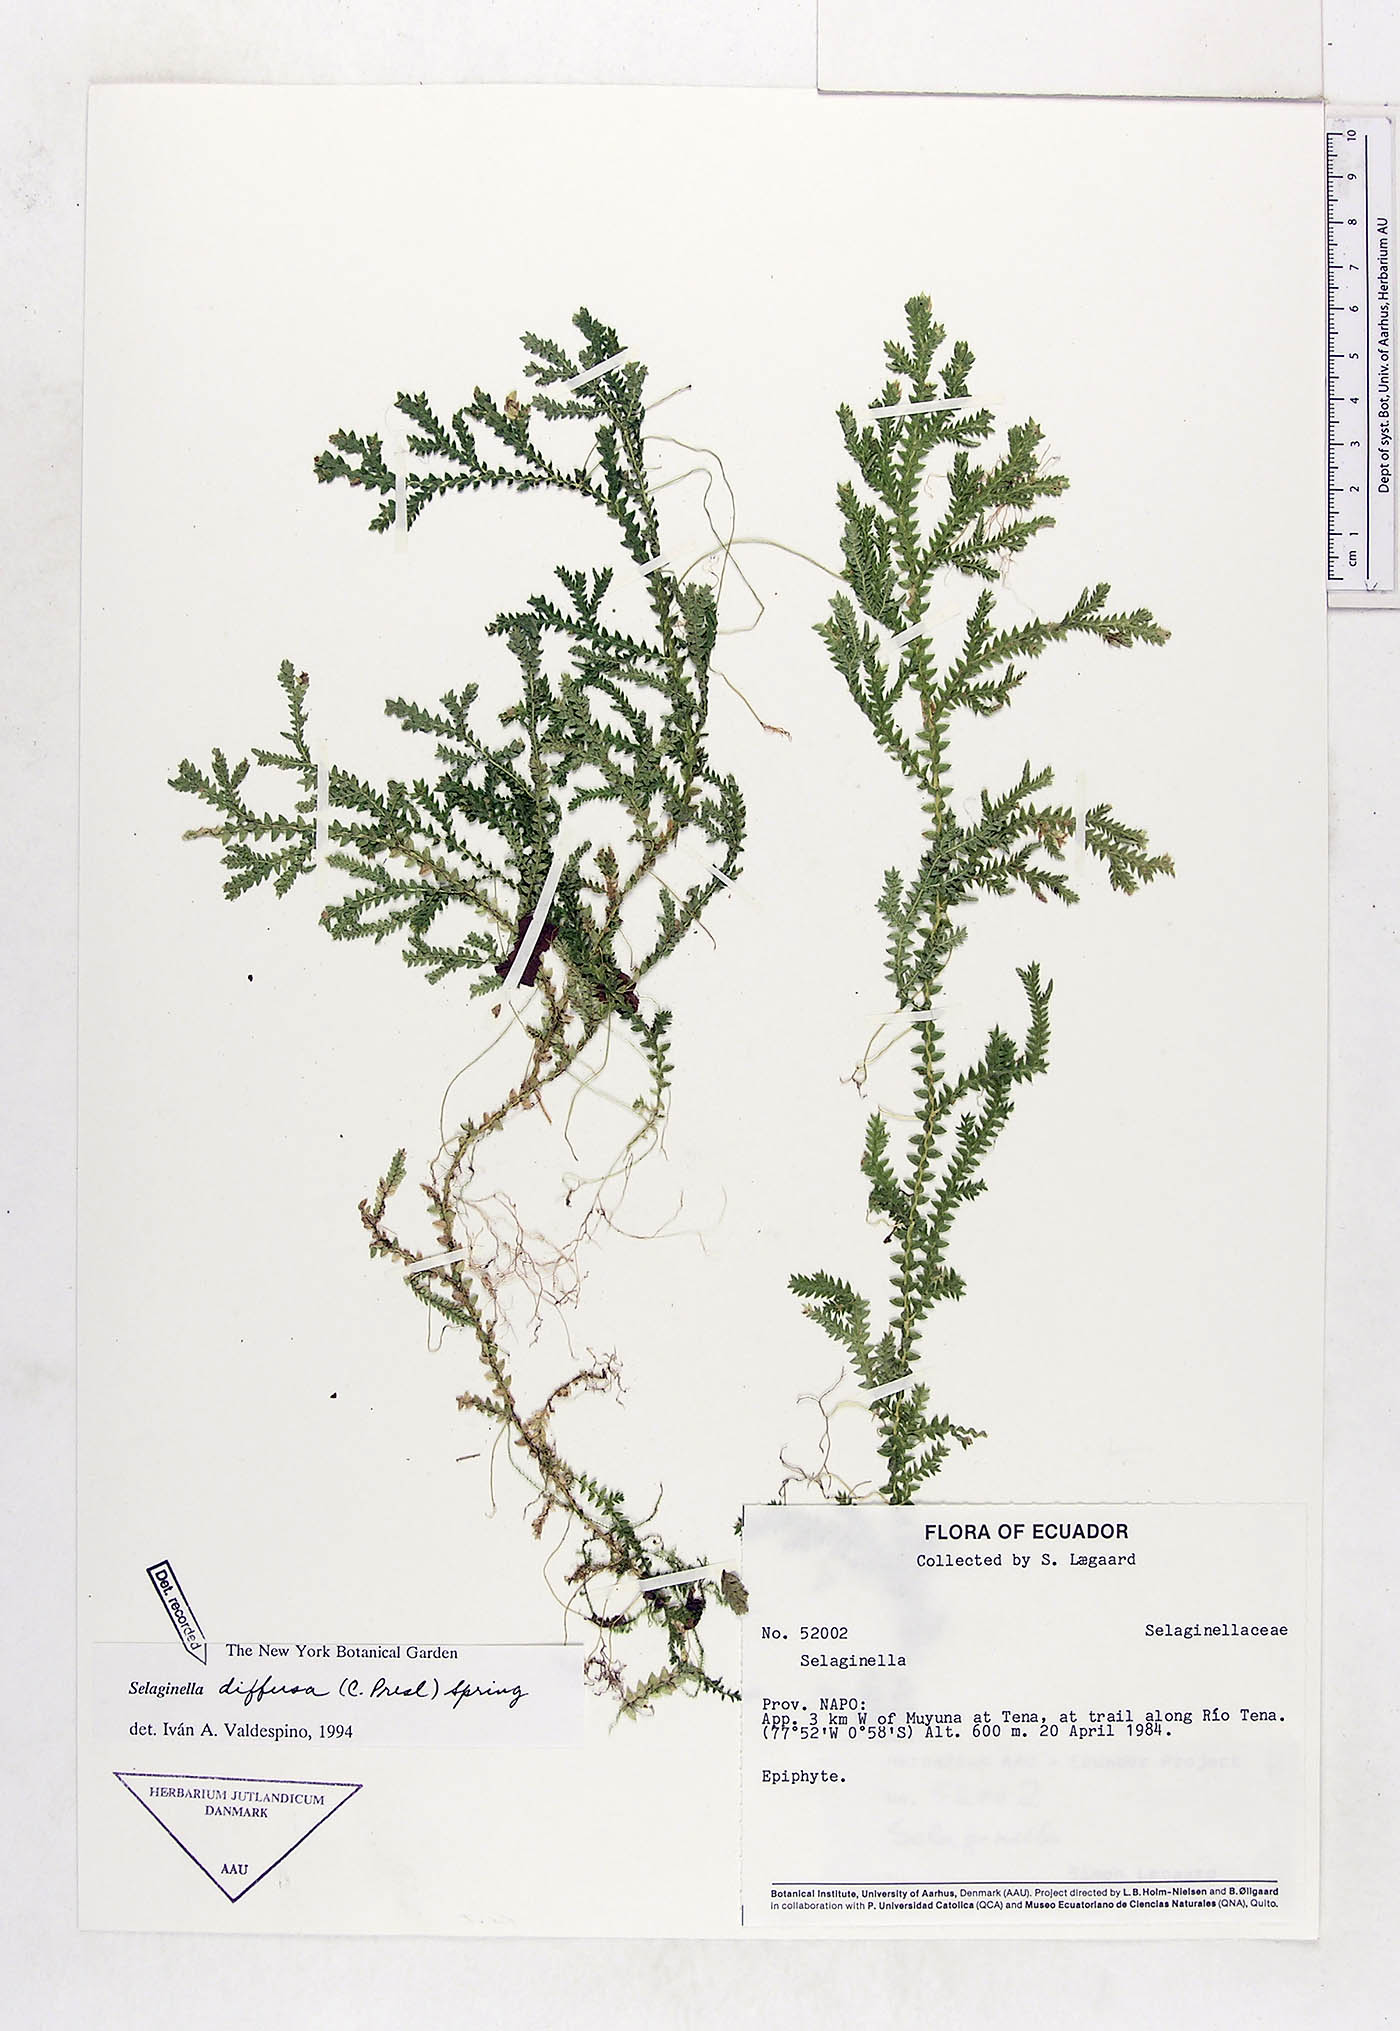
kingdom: Plantae
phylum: Tracheophyta
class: Lycopodiopsida
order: Selaginellales
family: Selaginellaceae
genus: Selaginella
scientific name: Selaginella diffusa
